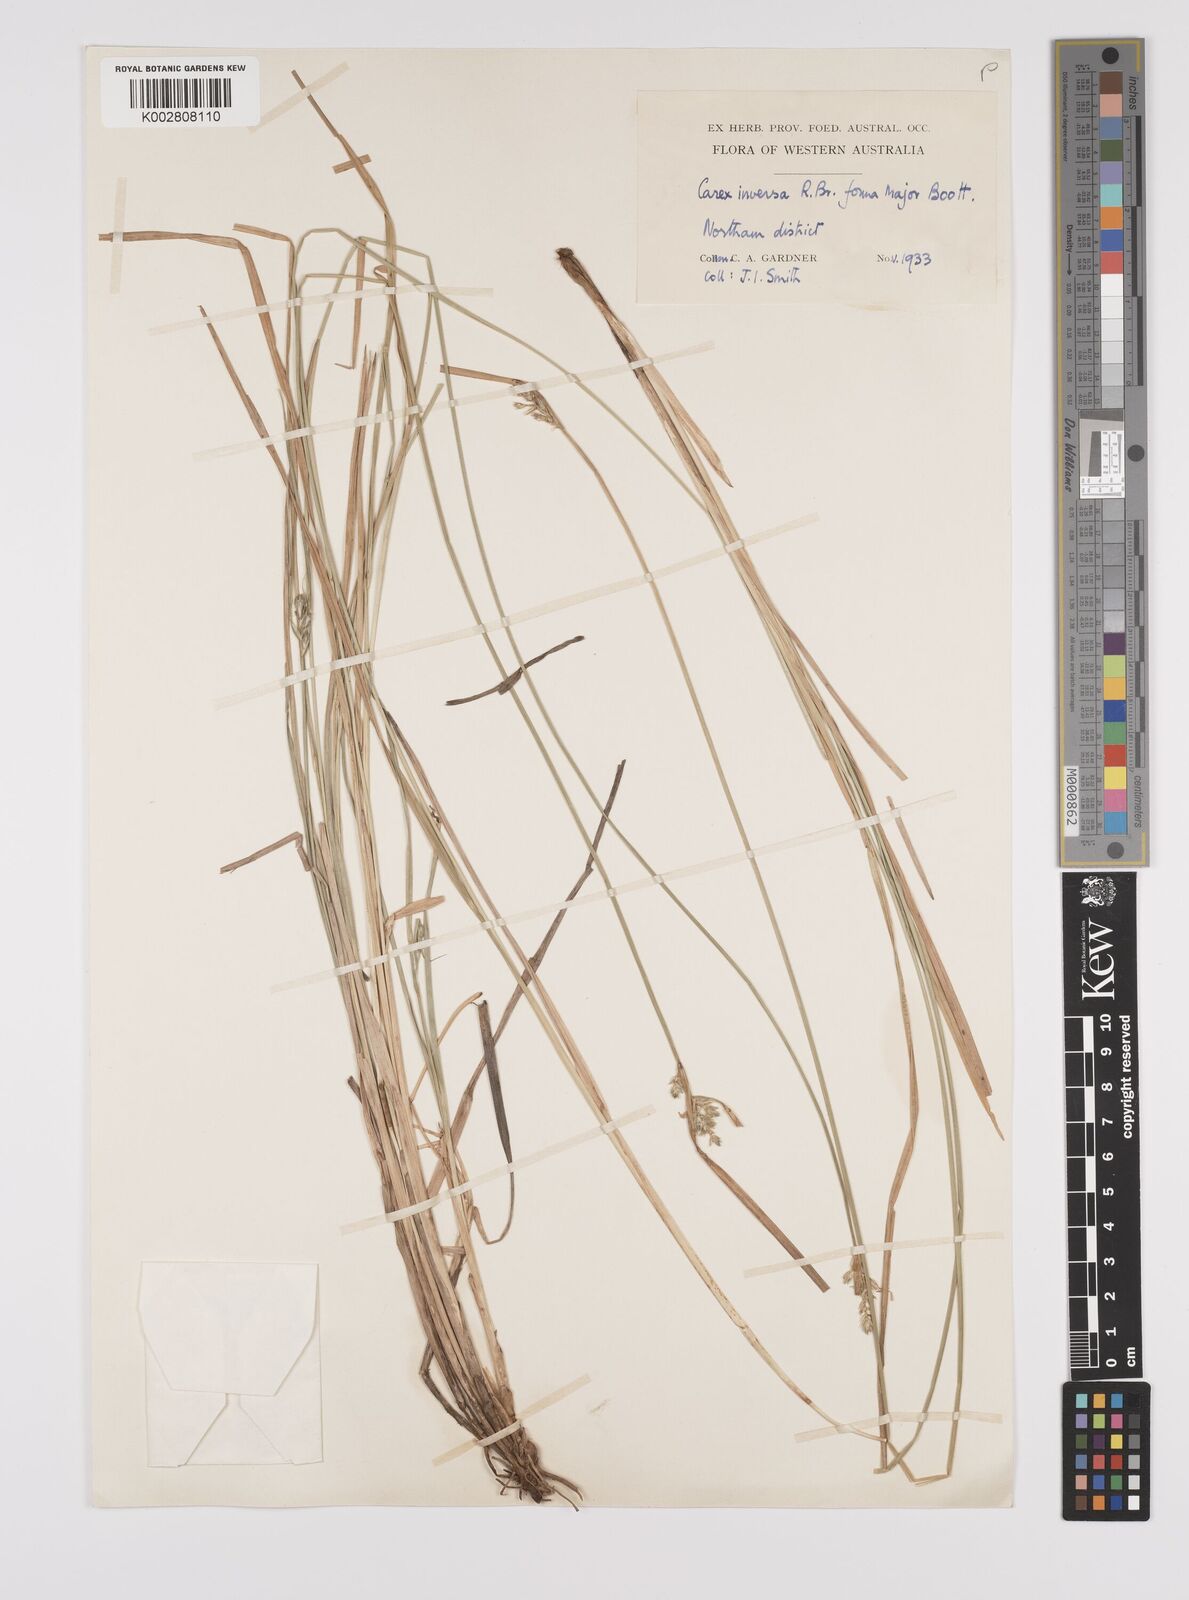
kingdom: Plantae
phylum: Tracheophyta
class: Liliopsida
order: Poales
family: Cyperaceae
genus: Carex
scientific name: Carex inversa
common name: Knob sedge
